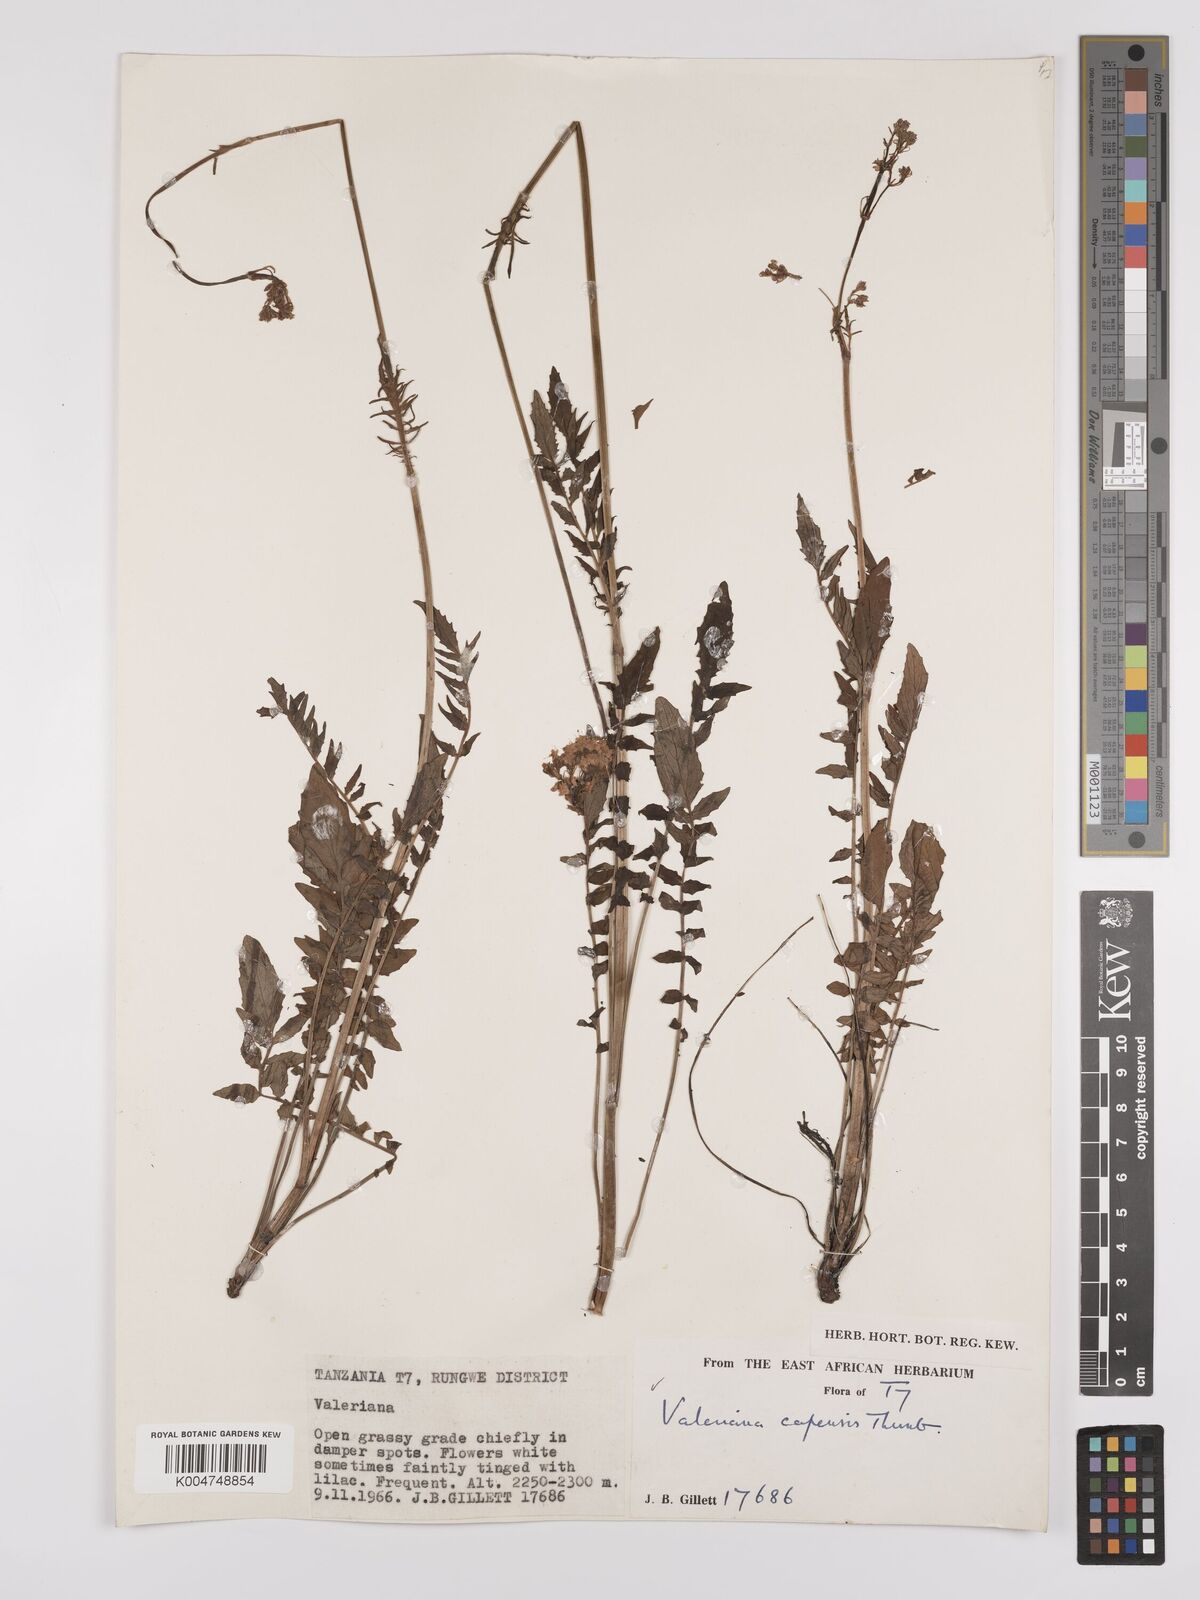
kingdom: Plantae
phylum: Tracheophyta
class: Magnoliopsida
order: Dipsacales
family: Caprifoliaceae
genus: Valeriana
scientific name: Valeriana capensis
